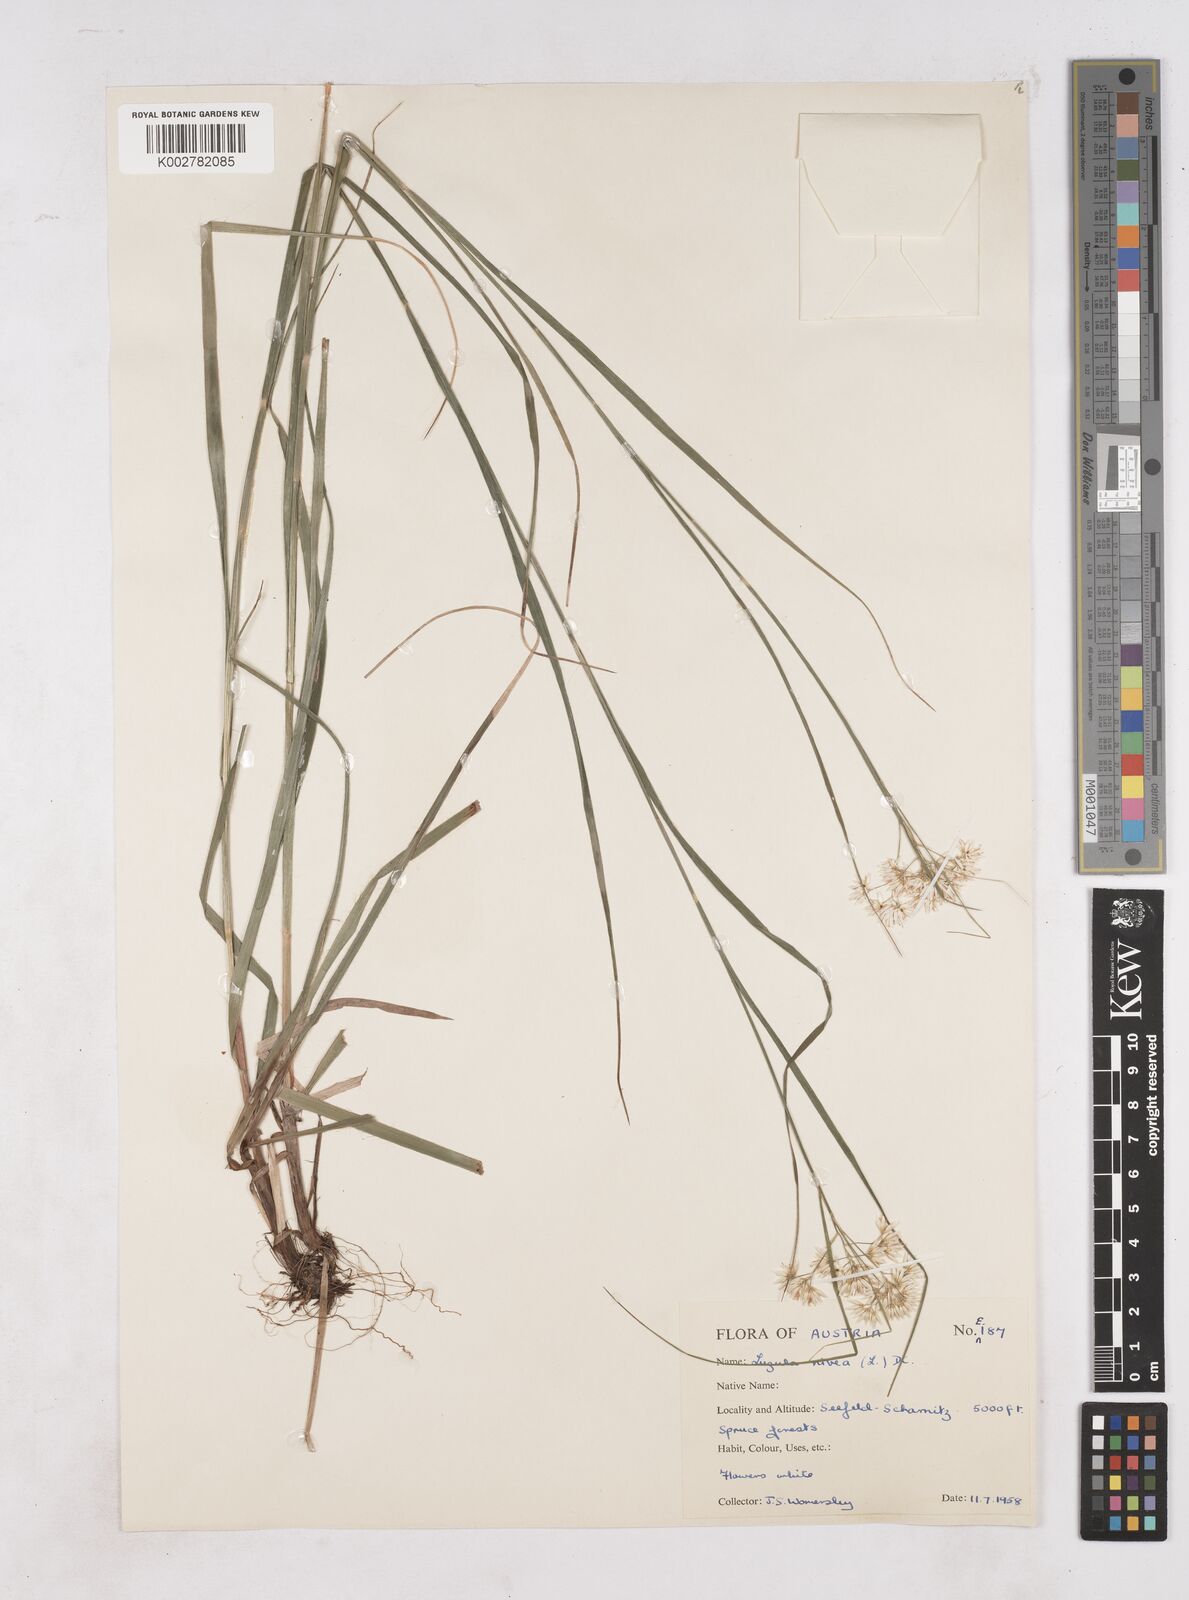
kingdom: Plantae
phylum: Tracheophyta
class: Liliopsida
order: Poales
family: Juncaceae
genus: Luzula
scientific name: Luzula nivea
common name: Snow-white wood-rush
